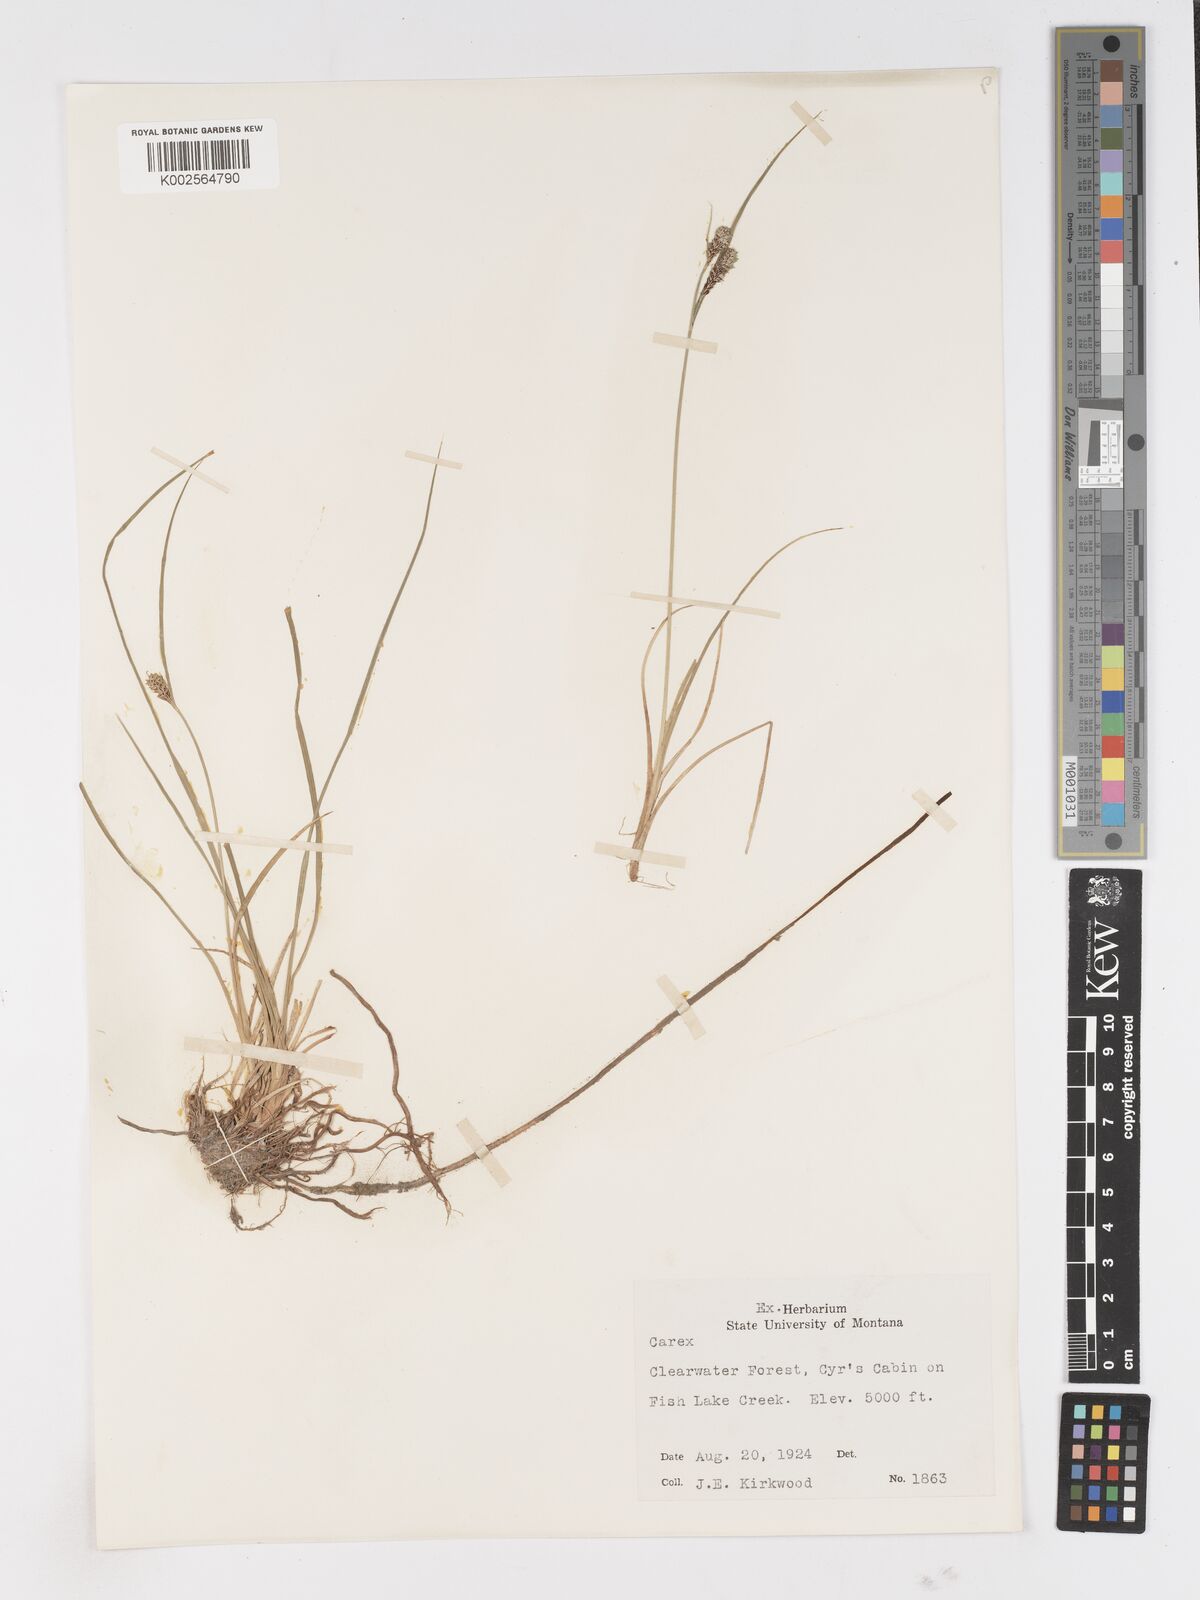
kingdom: Plantae
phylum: Tracheophyta
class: Liliopsida
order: Poales
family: Cyperaceae
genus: Carex
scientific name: Carex
